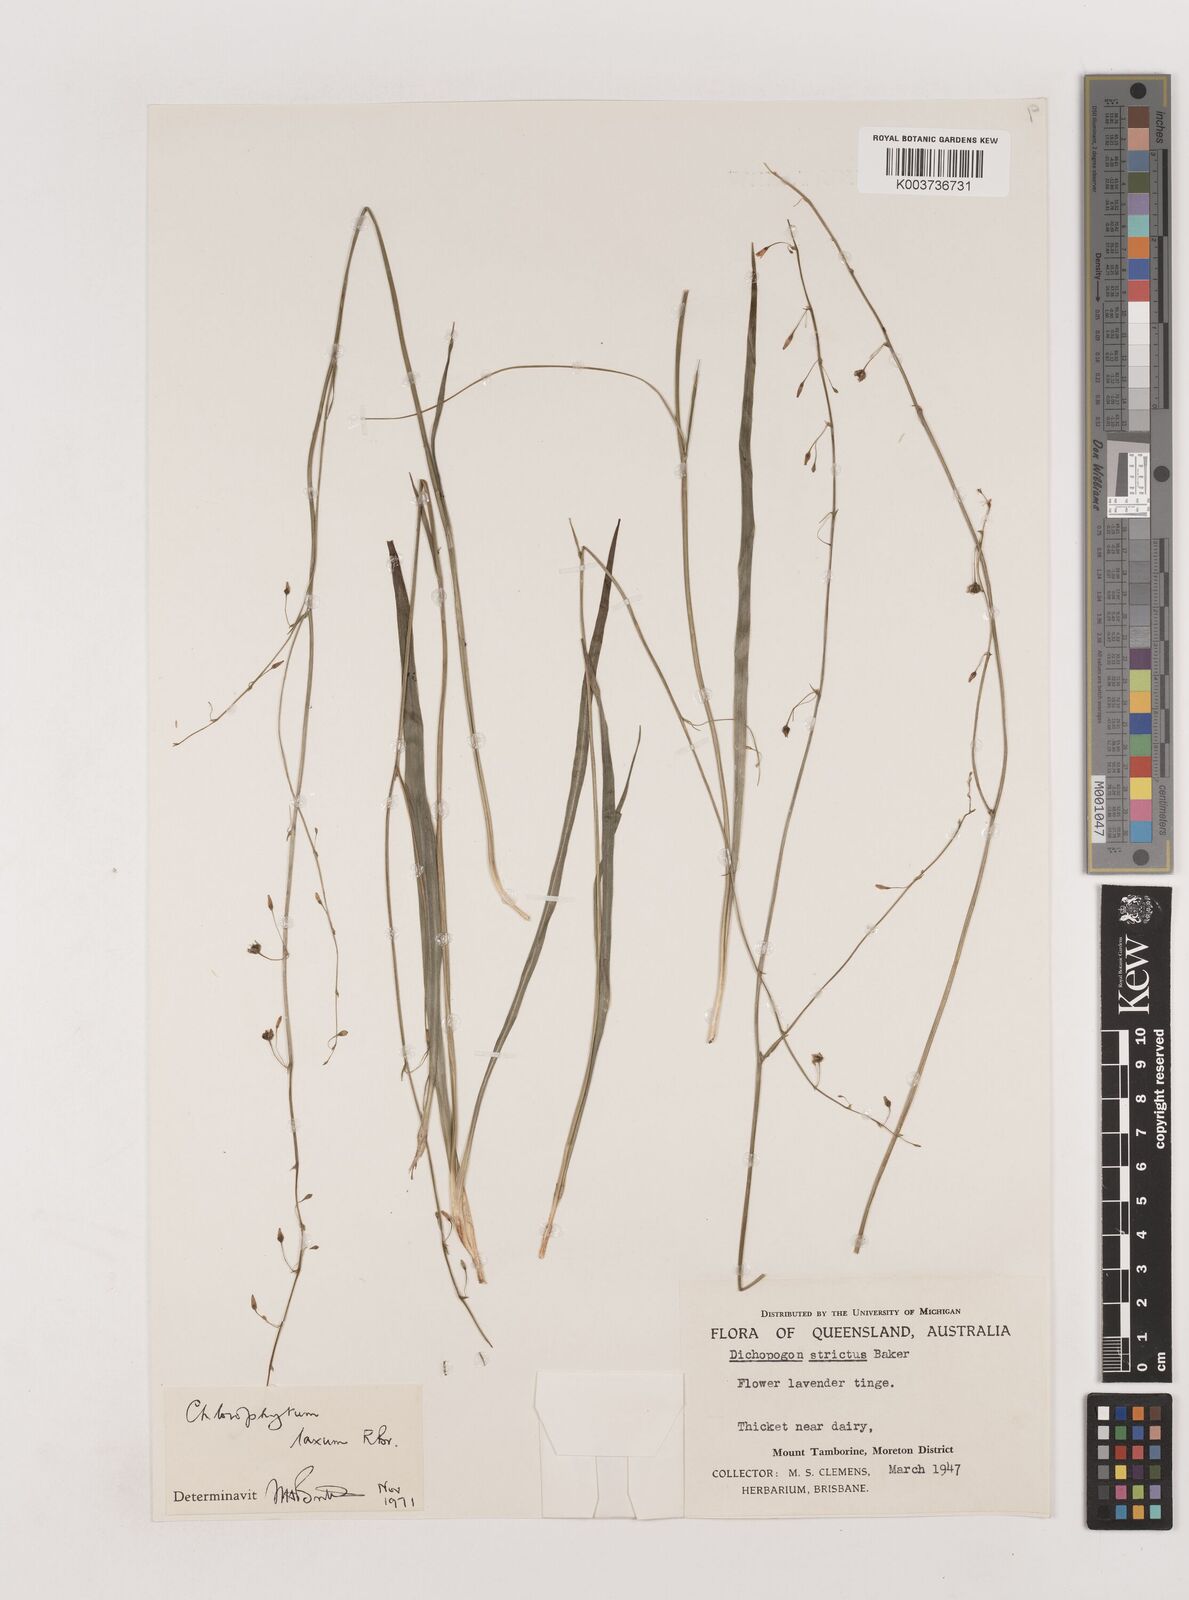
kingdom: Plantae
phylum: Tracheophyta
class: Liliopsida
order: Asparagales
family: Asparagaceae
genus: Chlorophytum
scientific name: Chlorophytum laxum
